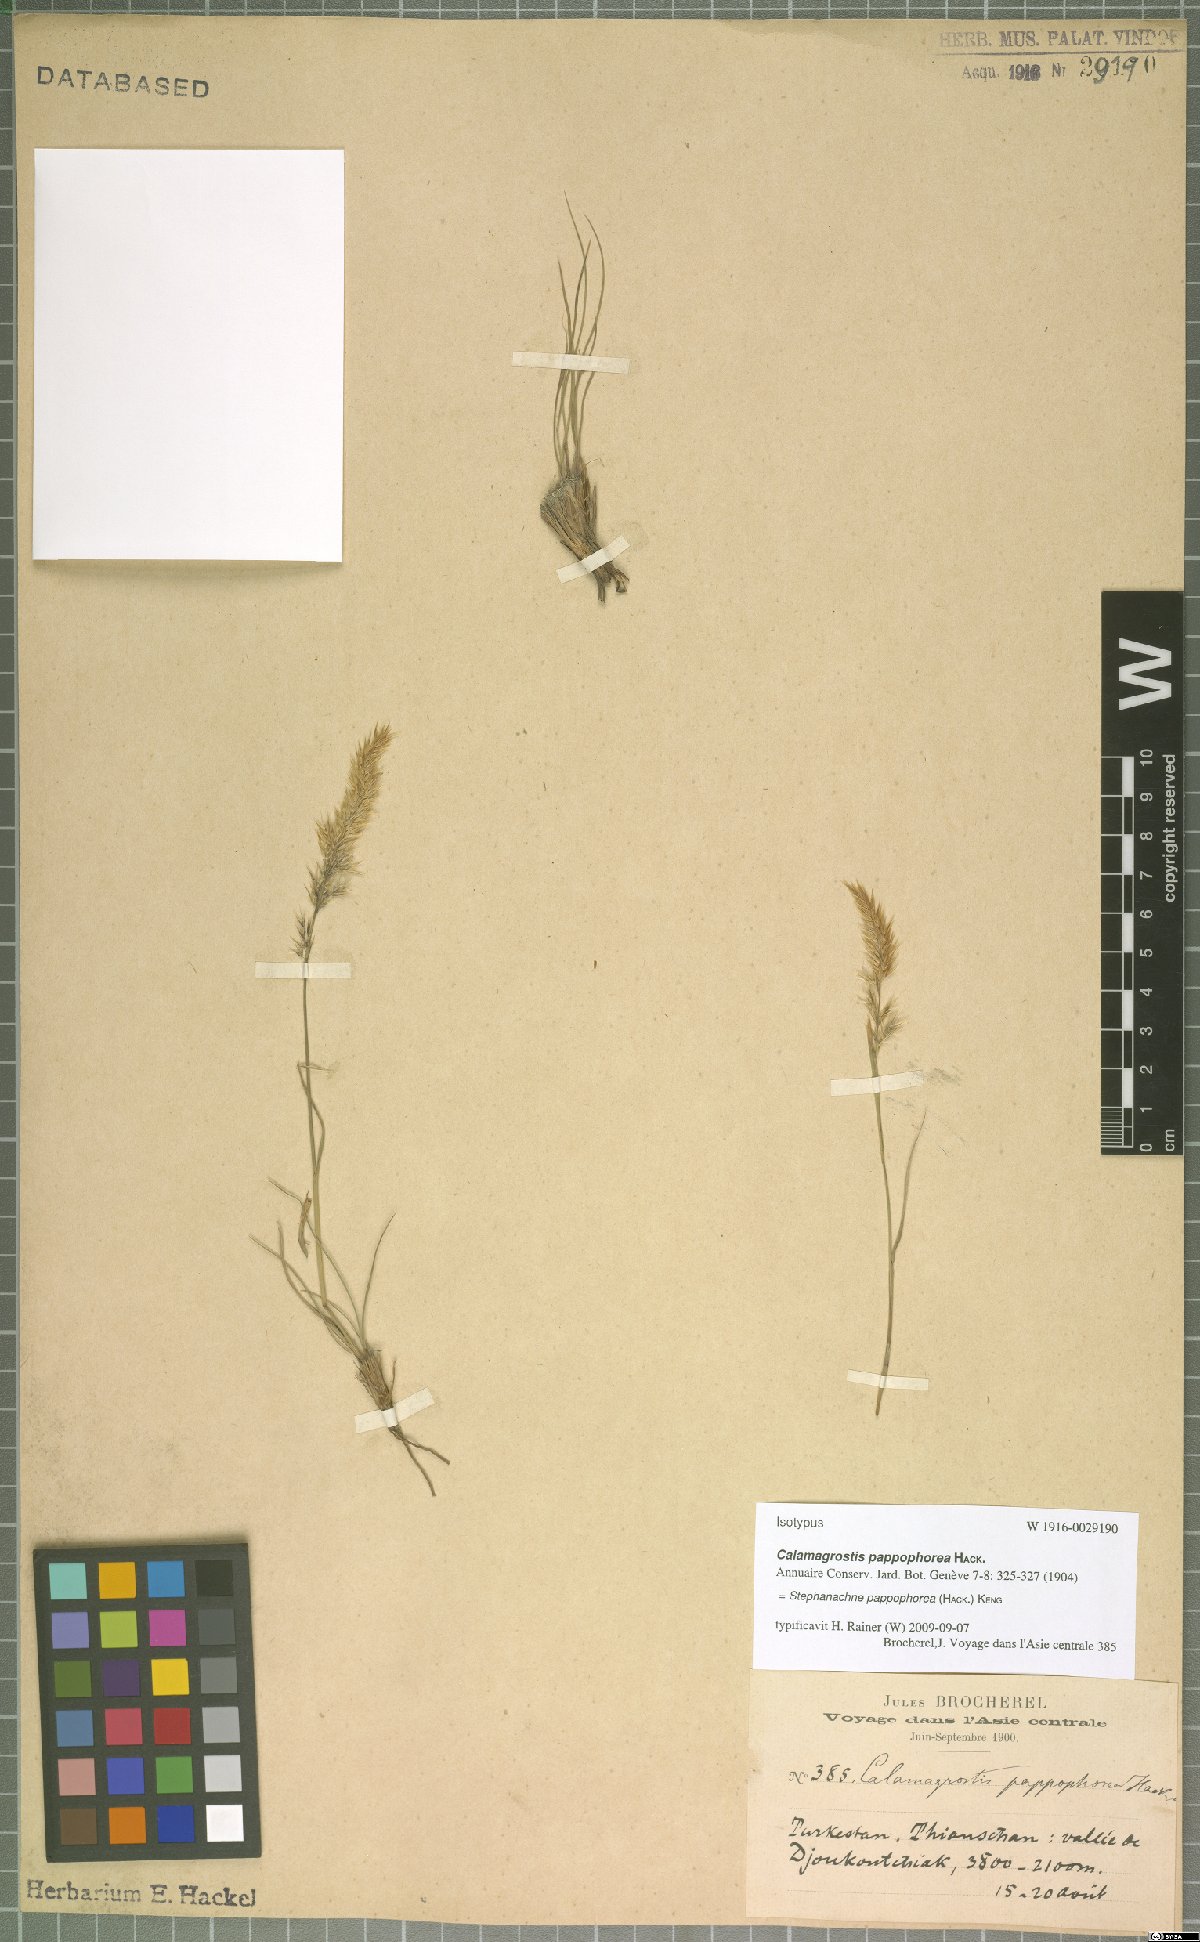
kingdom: Plantae
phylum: Tracheophyta
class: Liliopsida
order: Poales
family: Poaceae
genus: Pappagrostis
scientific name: Pappagrostis pappophorea
